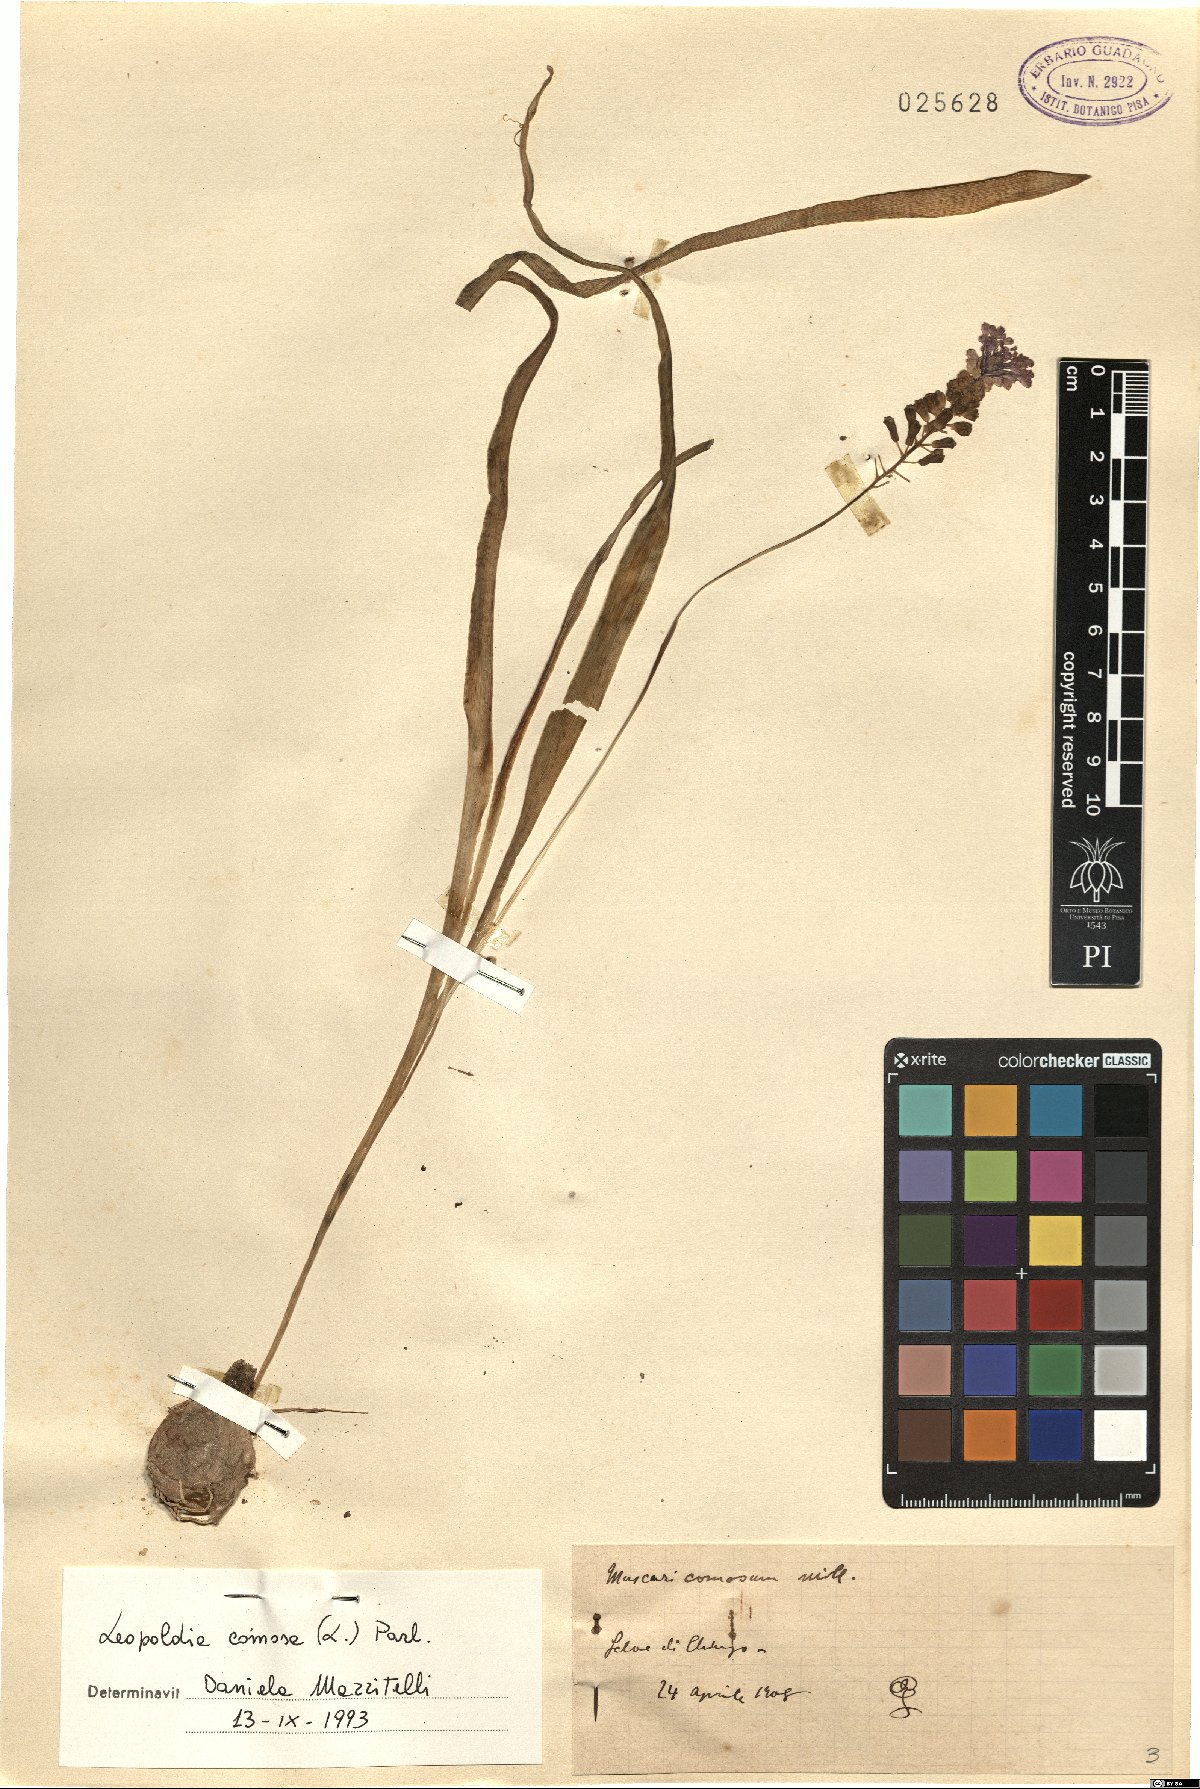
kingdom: Plantae
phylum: Tracheophyta
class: Liliopsida
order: Asparagales
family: Asparagaceae
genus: Muscari
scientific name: Muscari comosum
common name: Tassel hyacinth
